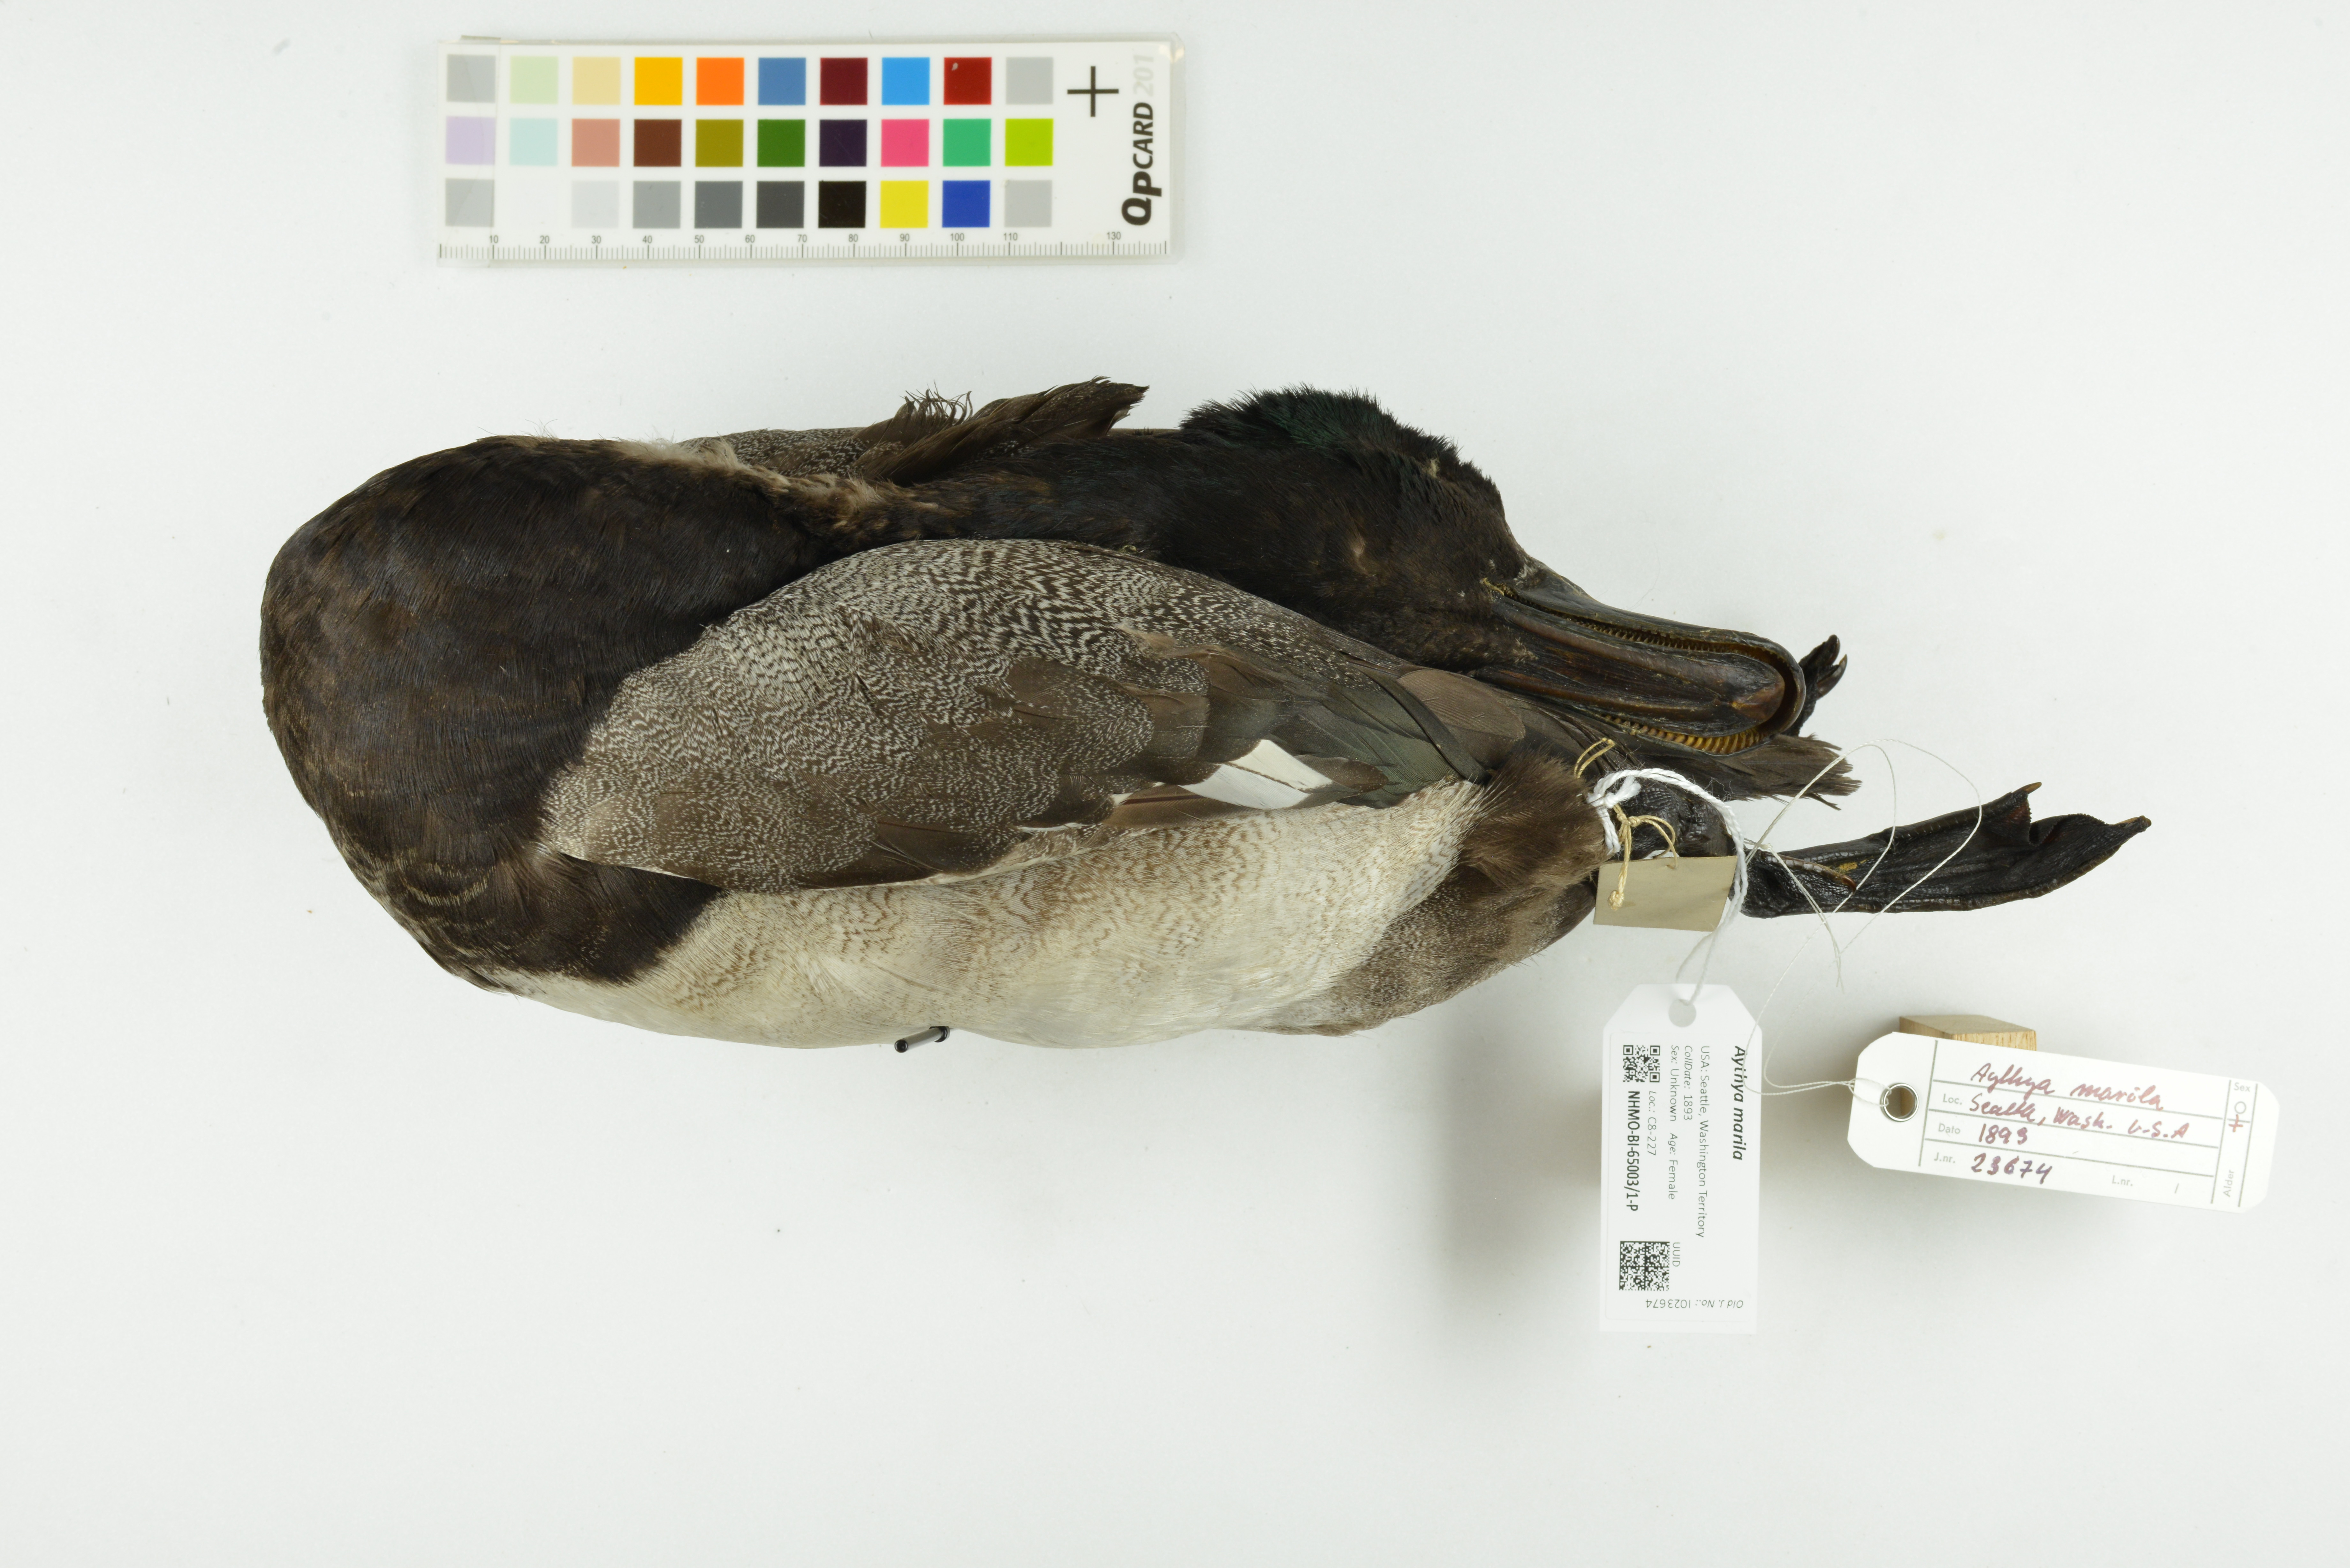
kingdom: Animalia
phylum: Chordata
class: Aves
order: Anseriformes
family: Anatidae
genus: Aythya
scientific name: Aythya marila
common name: Greater scaup
